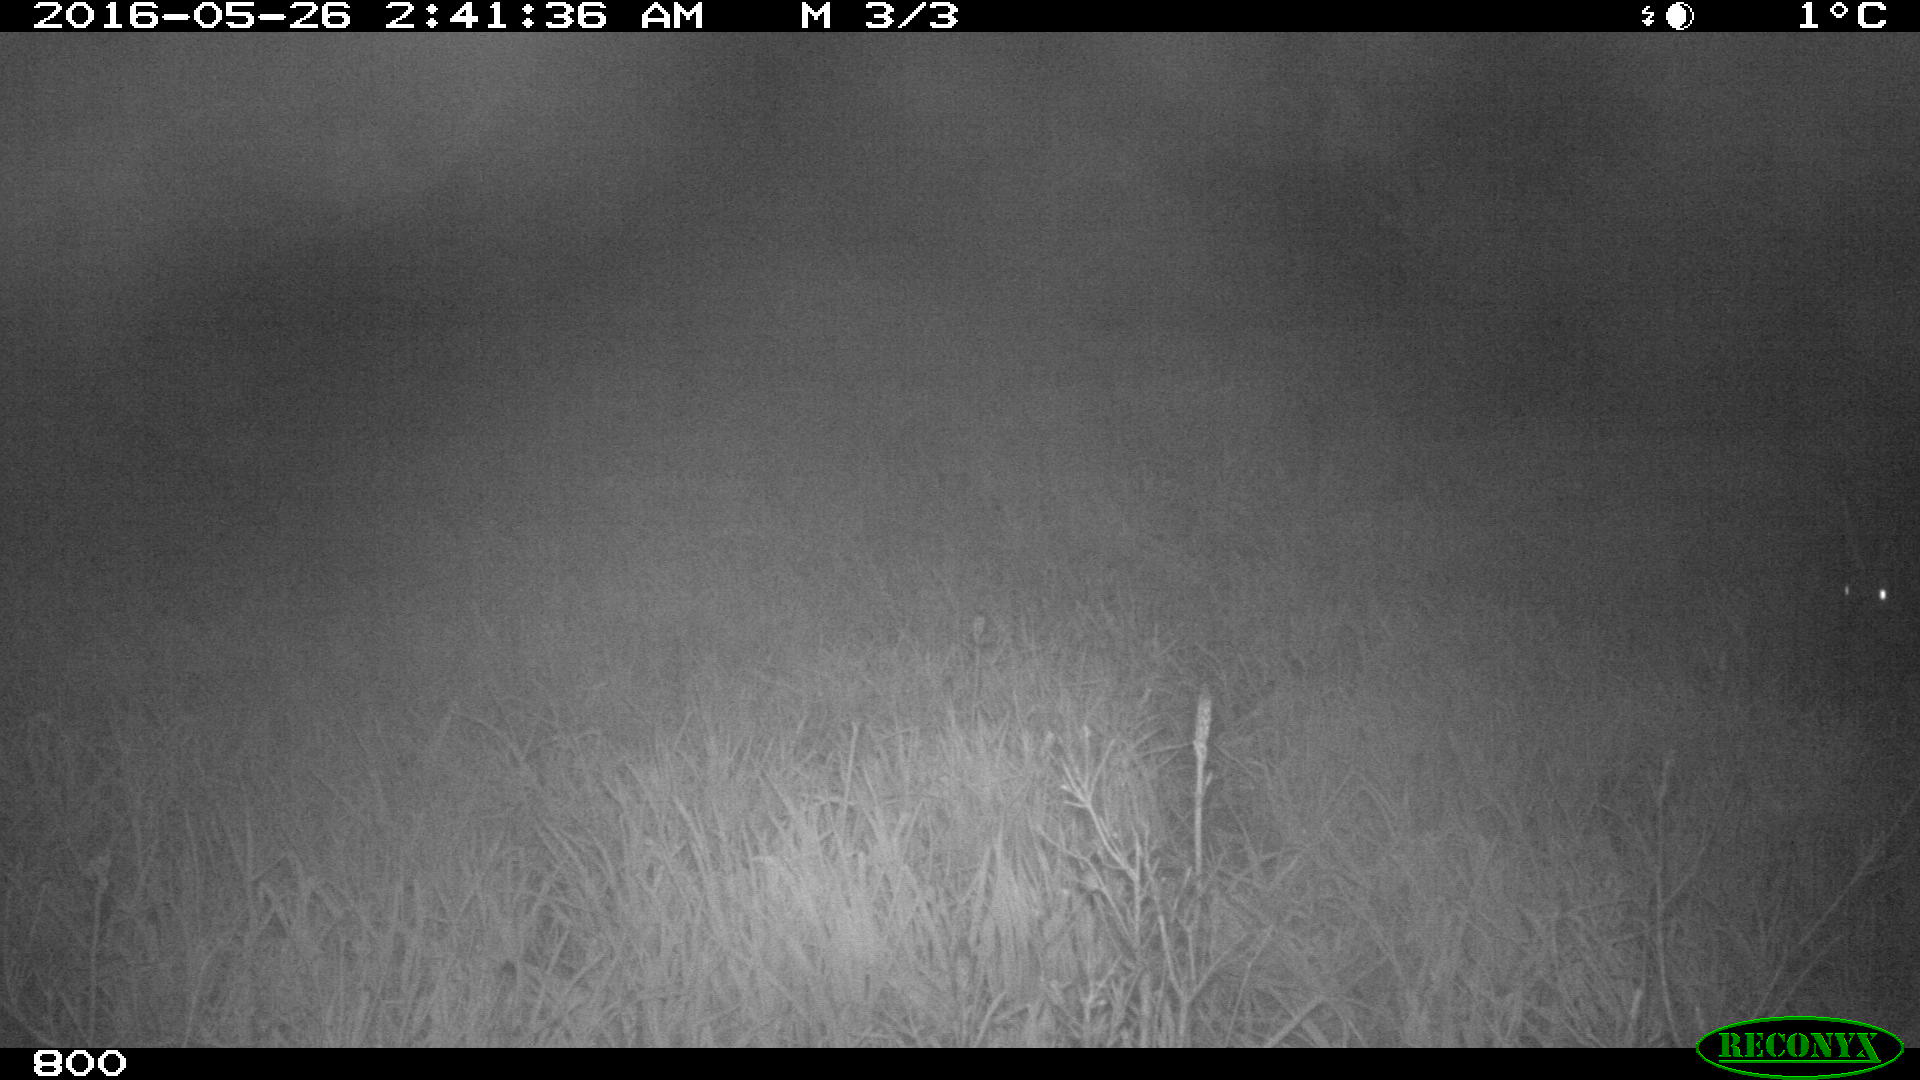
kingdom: Animalia
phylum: Chordata
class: Mammalia
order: Artiodactyla
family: Cervidae
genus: Capreolus
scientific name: Capreolus capreolus
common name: Western roe deer
